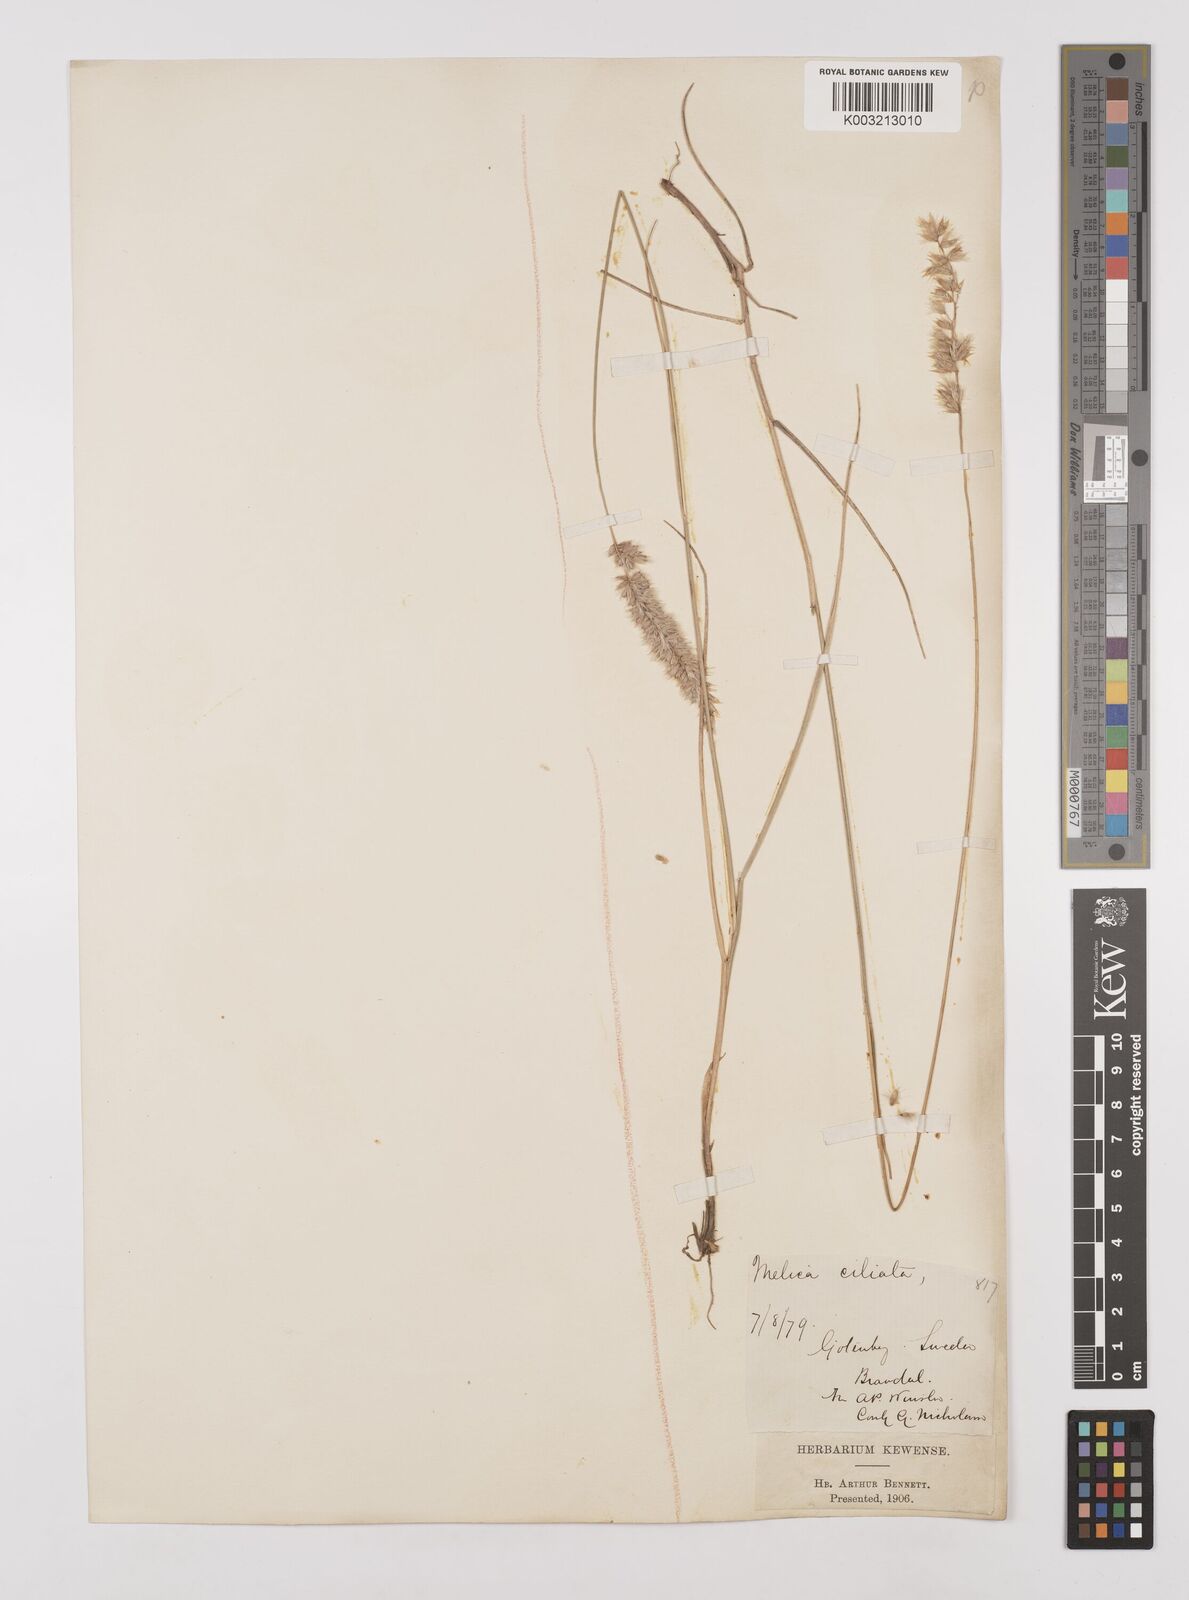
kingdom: Plantae
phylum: Tracheophyta
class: Liliopsida
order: Poales
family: Poaceae
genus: Melica
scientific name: Melica ciliata
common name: Hairy melicgrass
